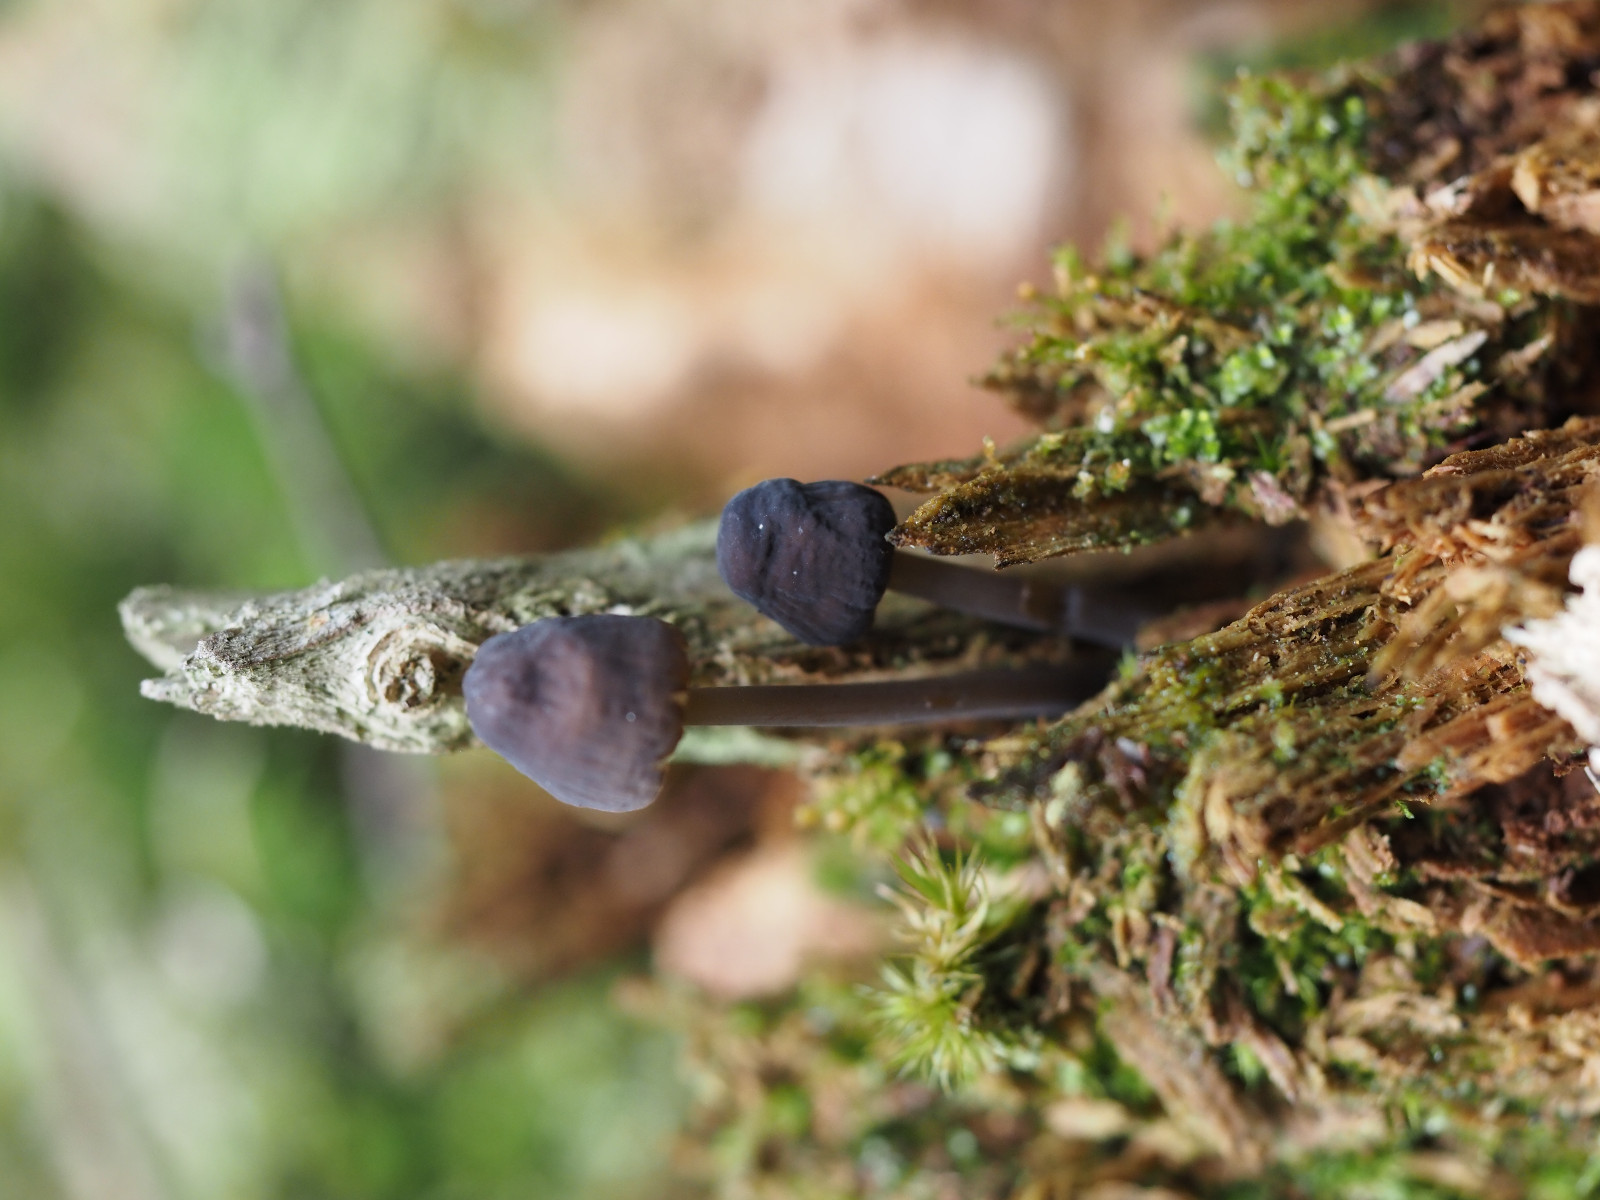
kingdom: Fungi
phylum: Basidiomycota
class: Agaricomycetes
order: Agaricales
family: Mycenaceae
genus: Mycena
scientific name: Mycena
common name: huesvamp
